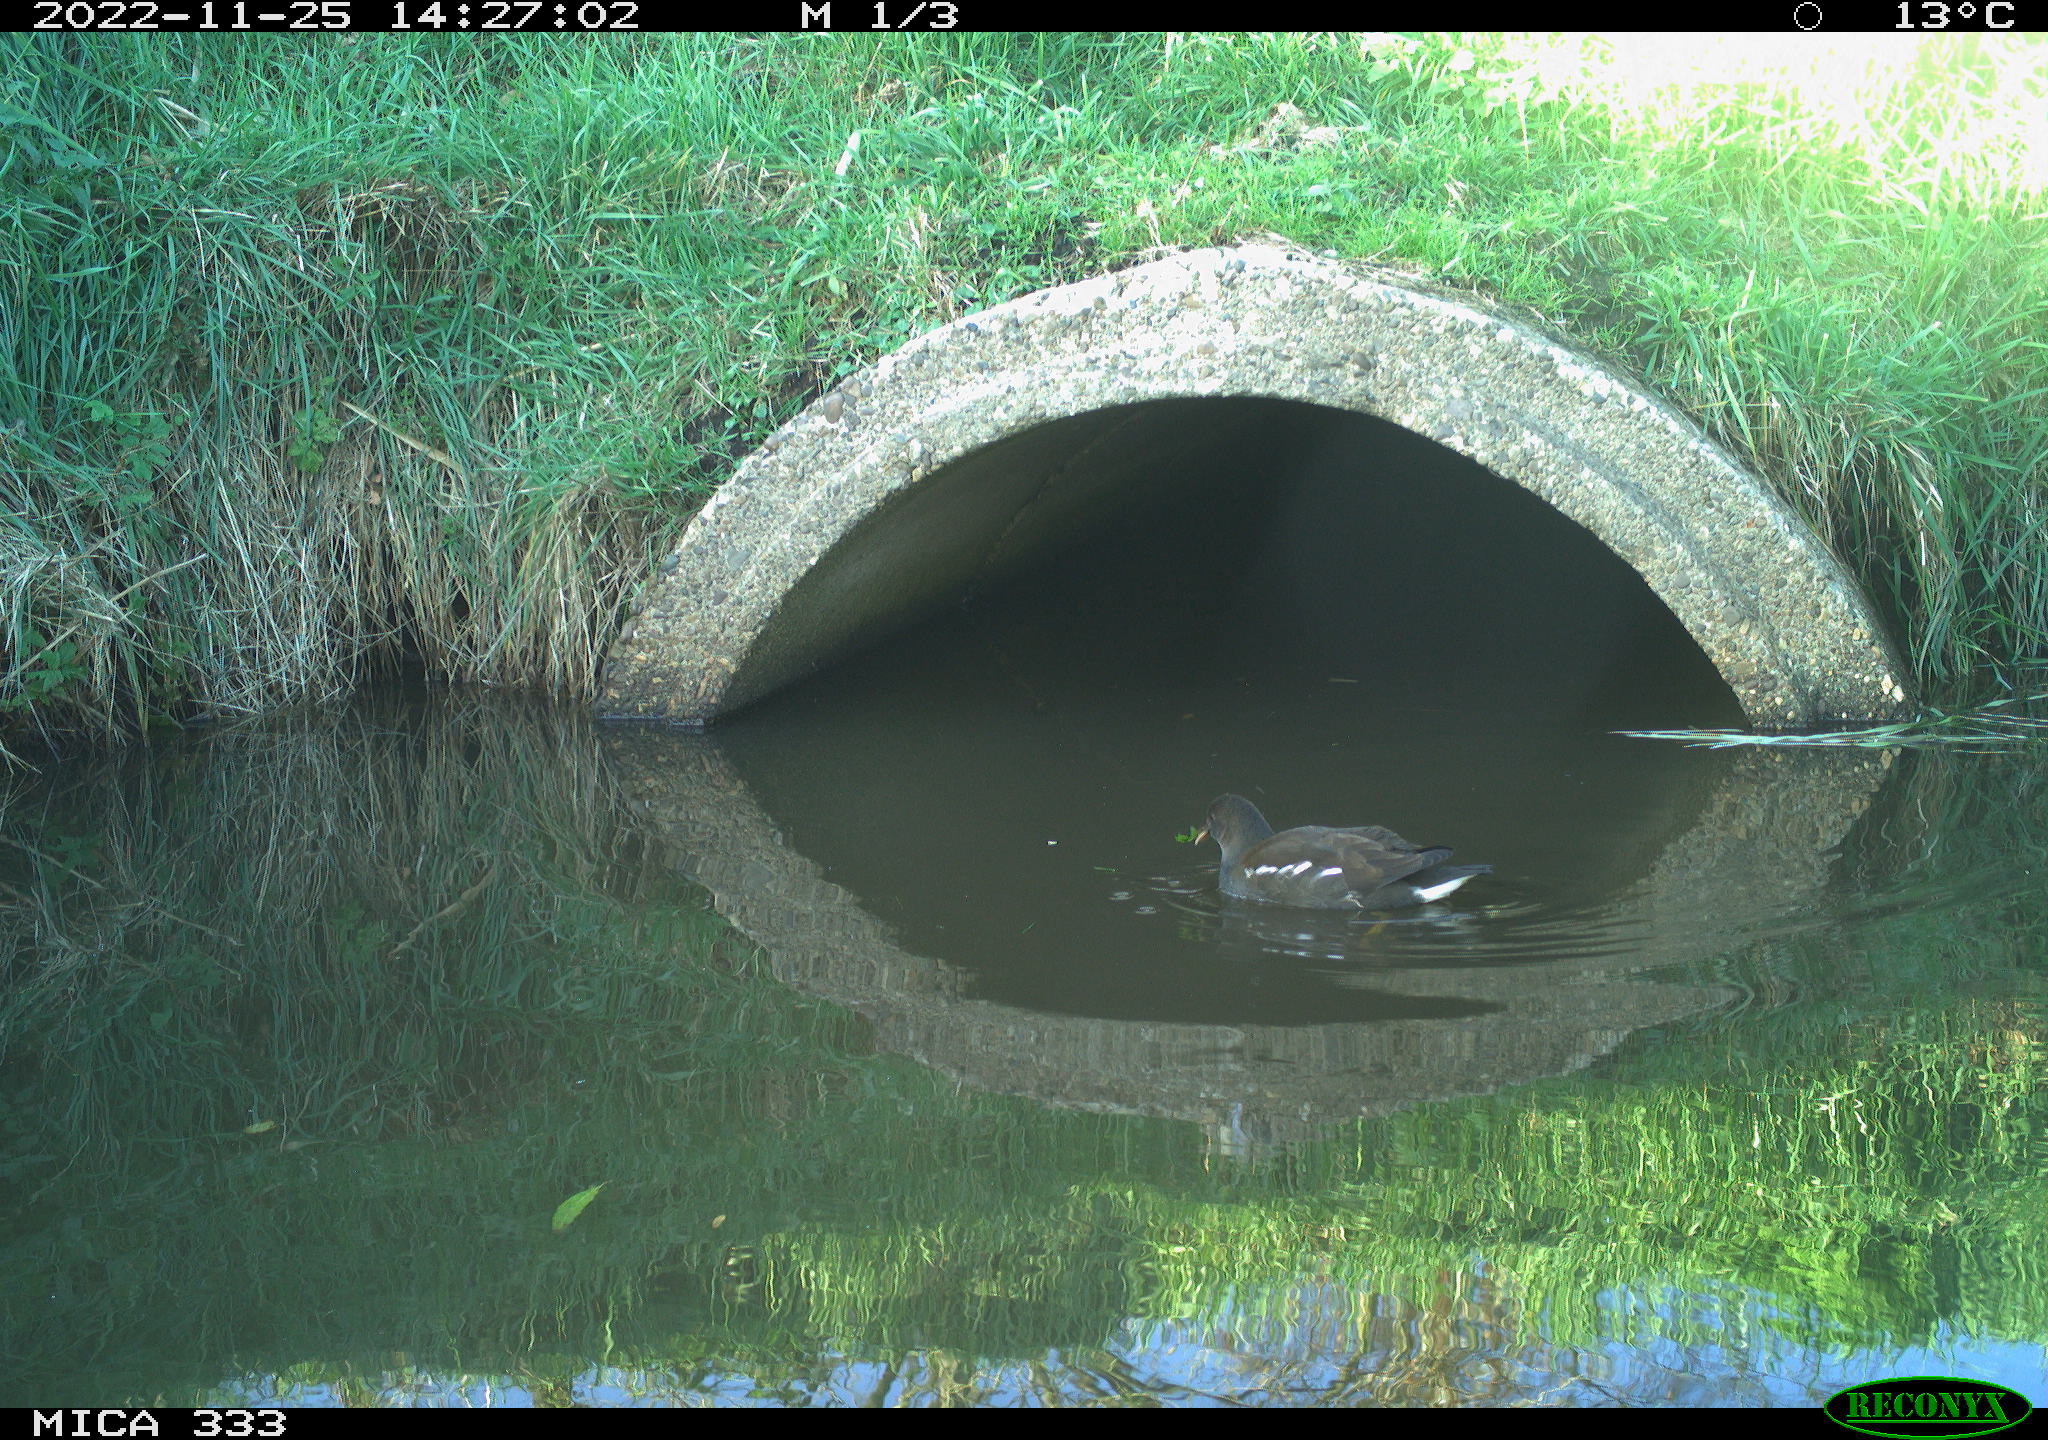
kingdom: Animalia
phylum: Chordata
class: Aves
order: Gruiformes
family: Rallidae
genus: Gallinula
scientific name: Gallinula chloropus
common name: Common moorhen
